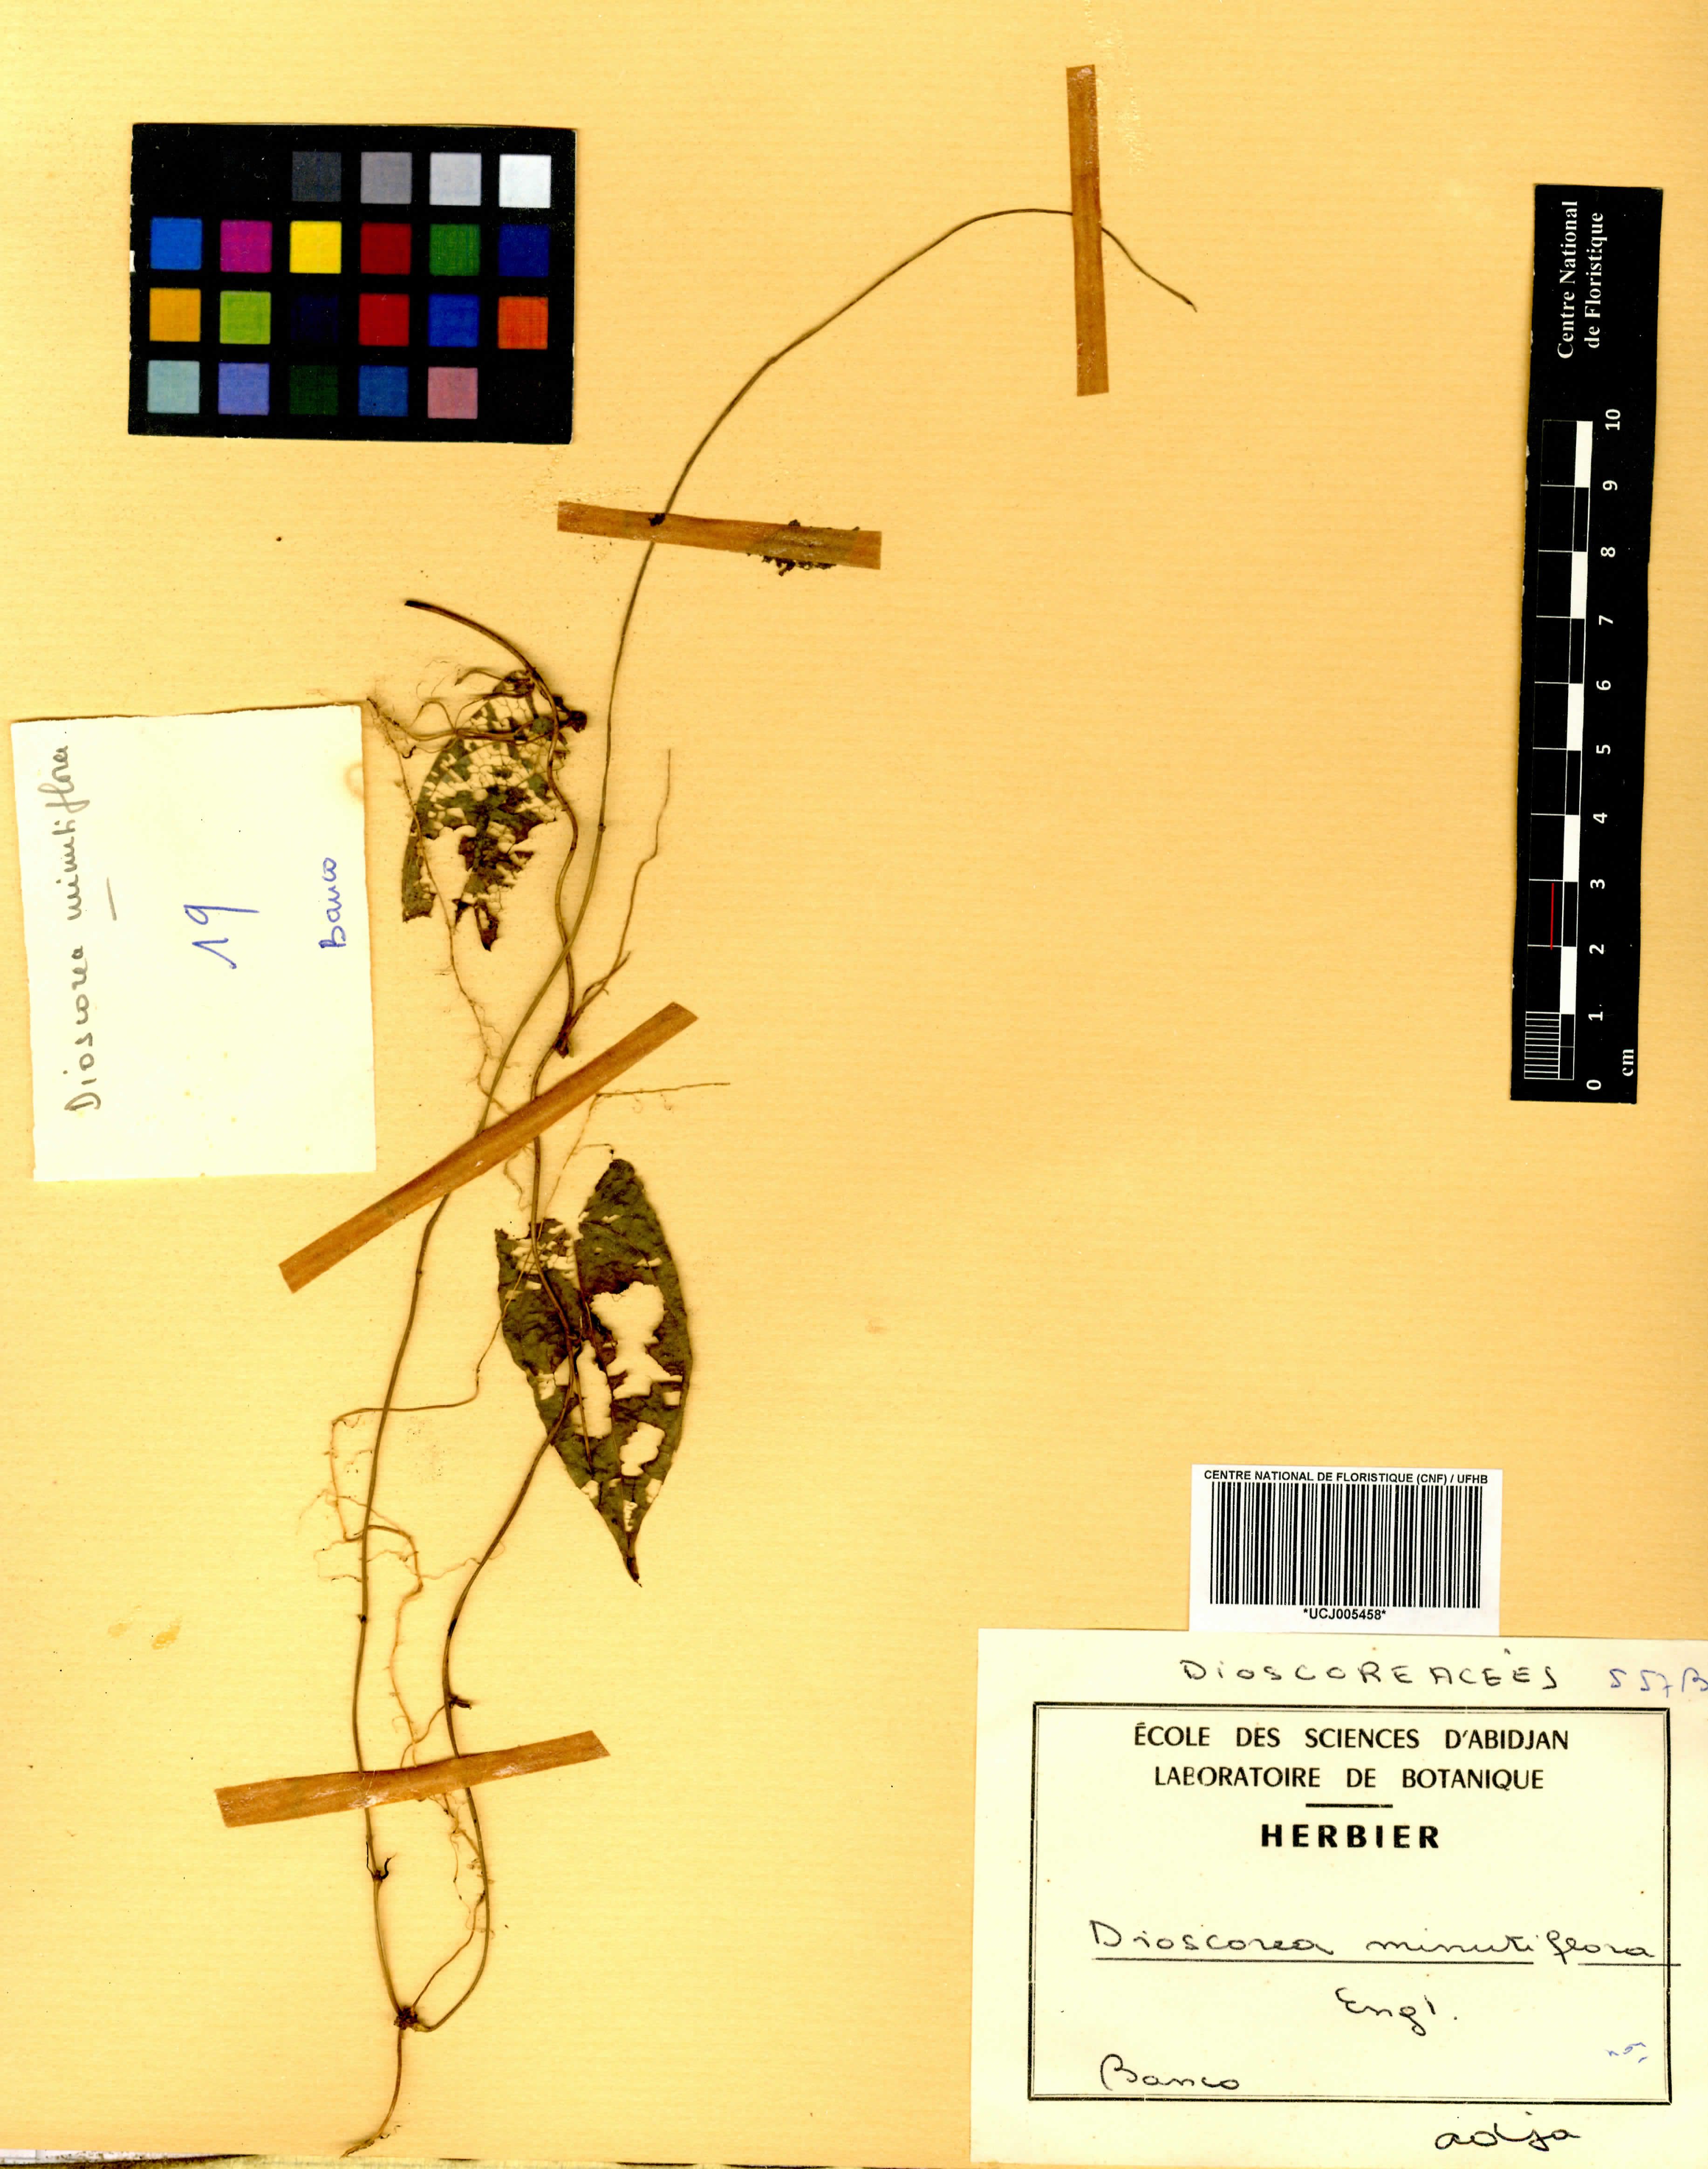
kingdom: Plantae
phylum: Tracheophyta
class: Liliopsida
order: Dioscoreales
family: Dioscoreaceae
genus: Dioscorea
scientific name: Dioscorea minutiflora
